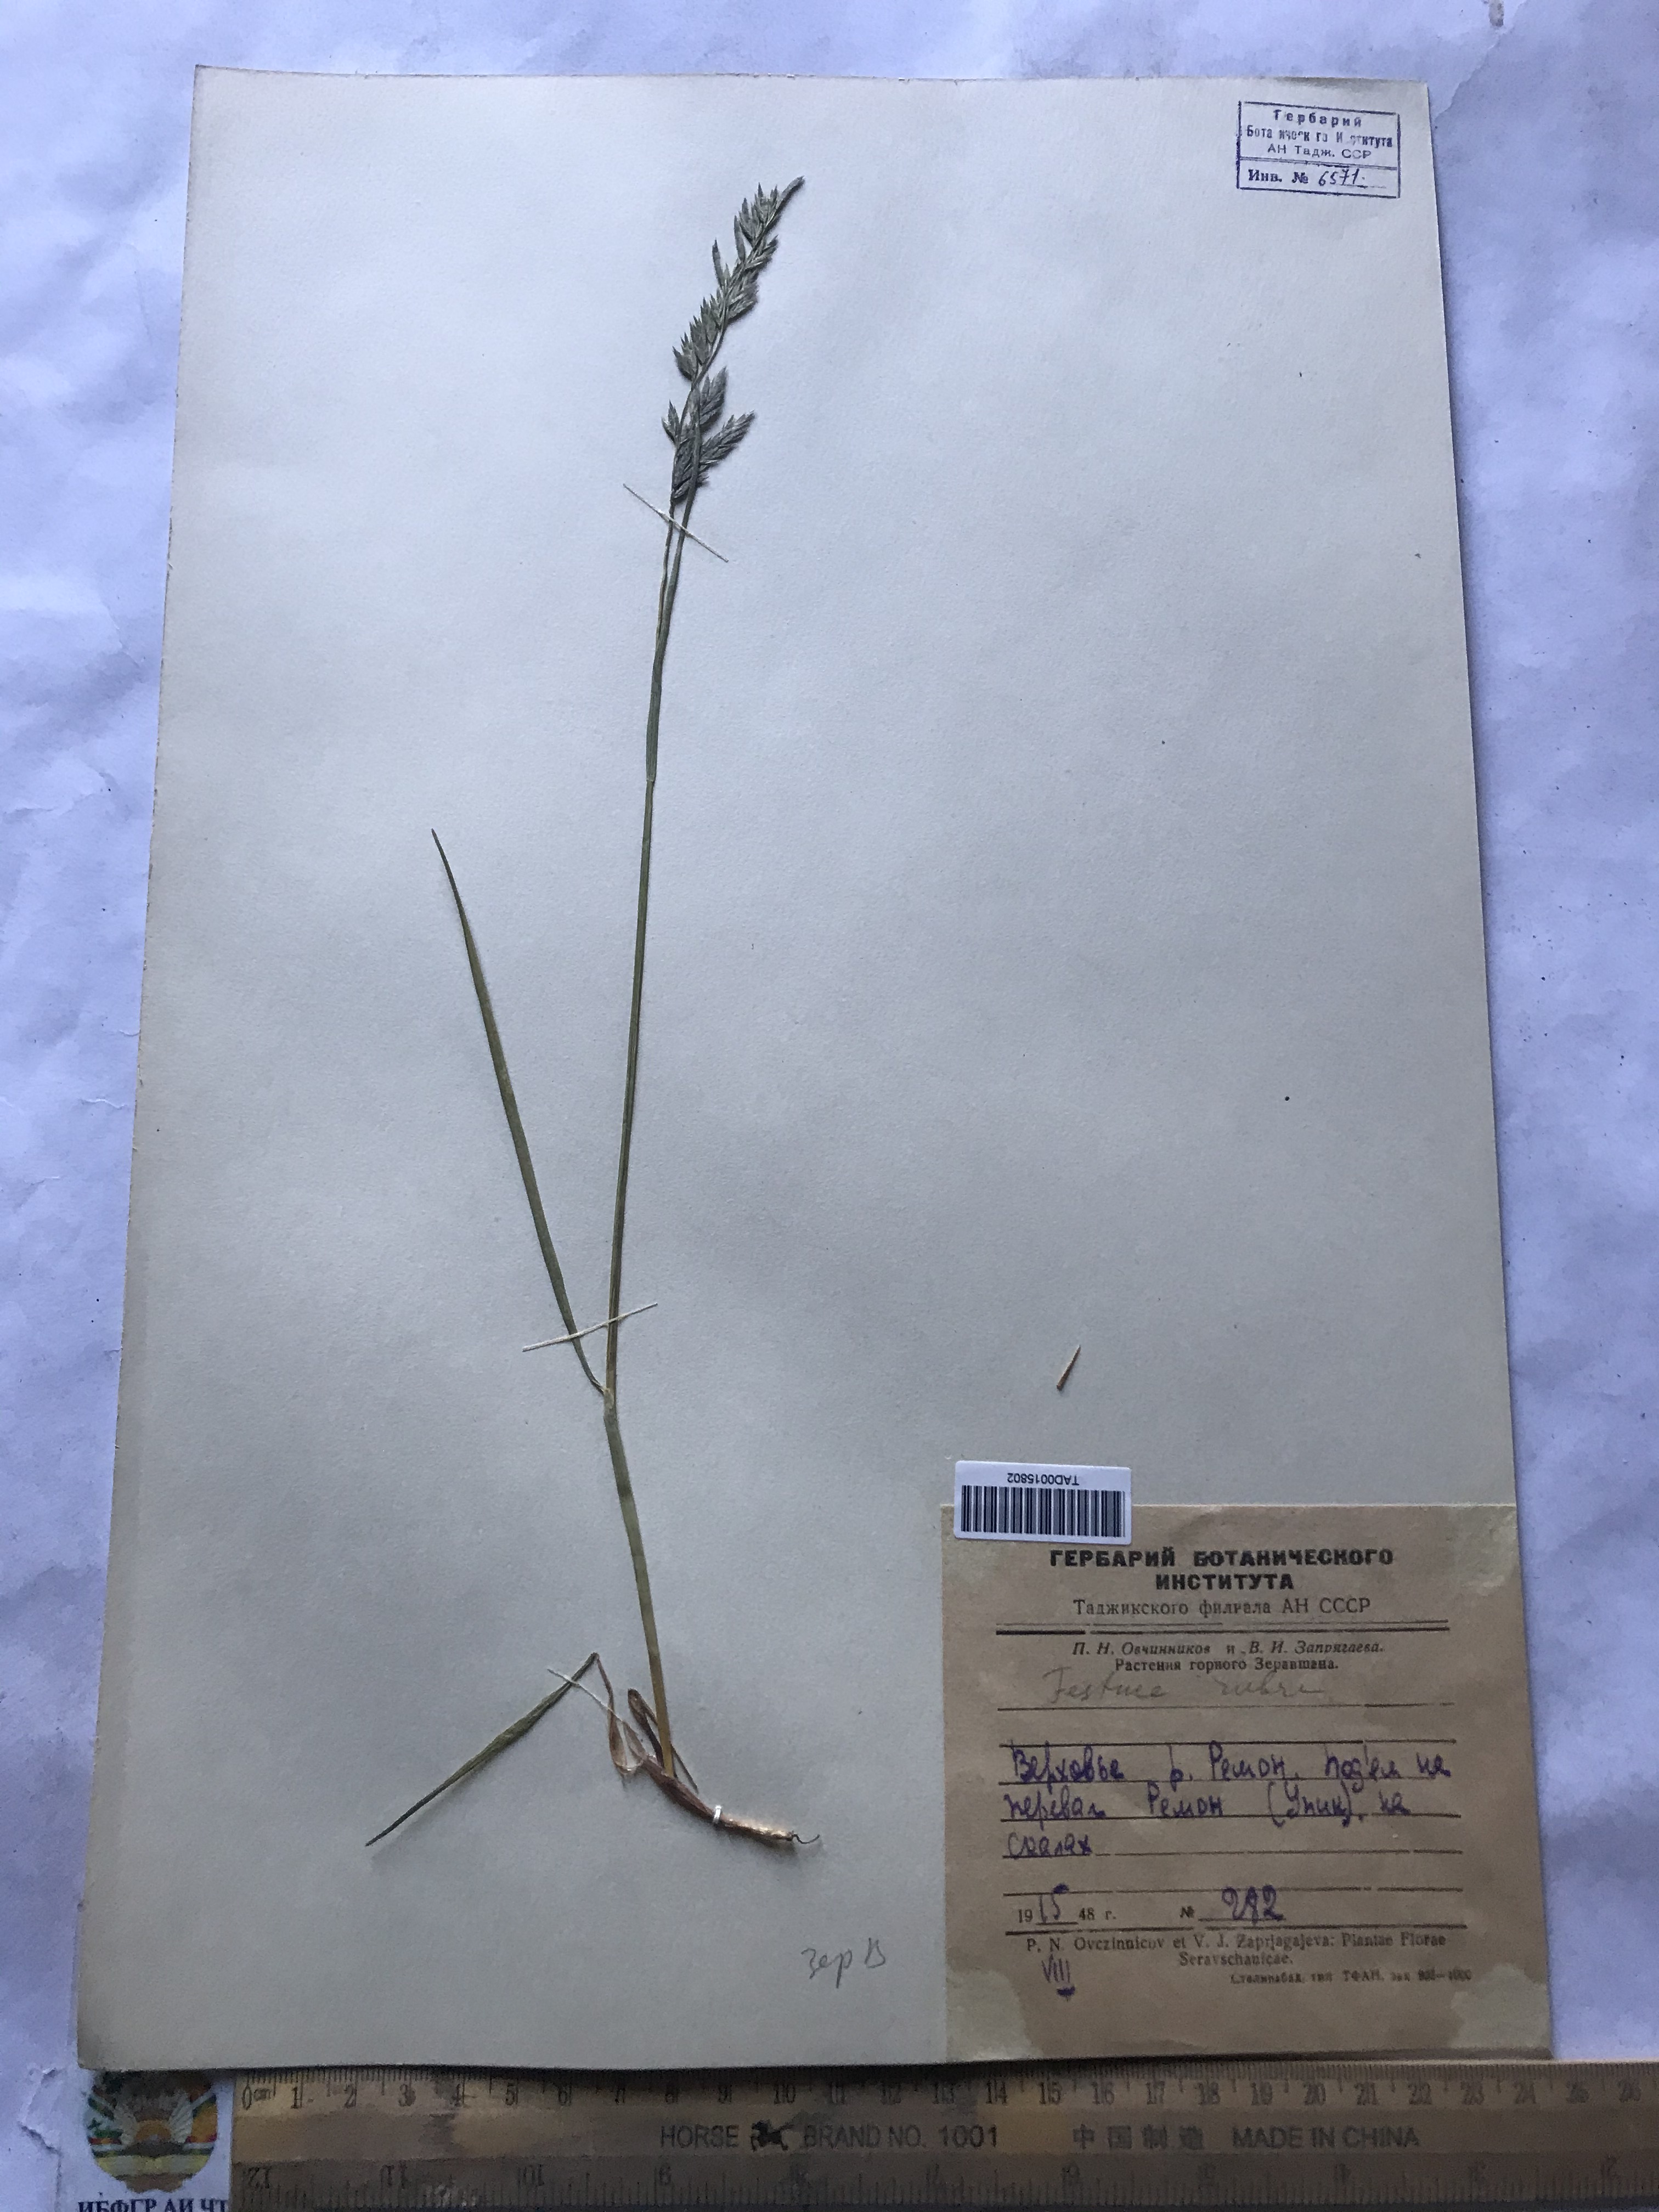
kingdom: Plantae
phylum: Tracheophyta
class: Liliopsida
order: Poales
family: Poaceae
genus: Festuca
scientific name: Festuca rubra
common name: Red fescue
